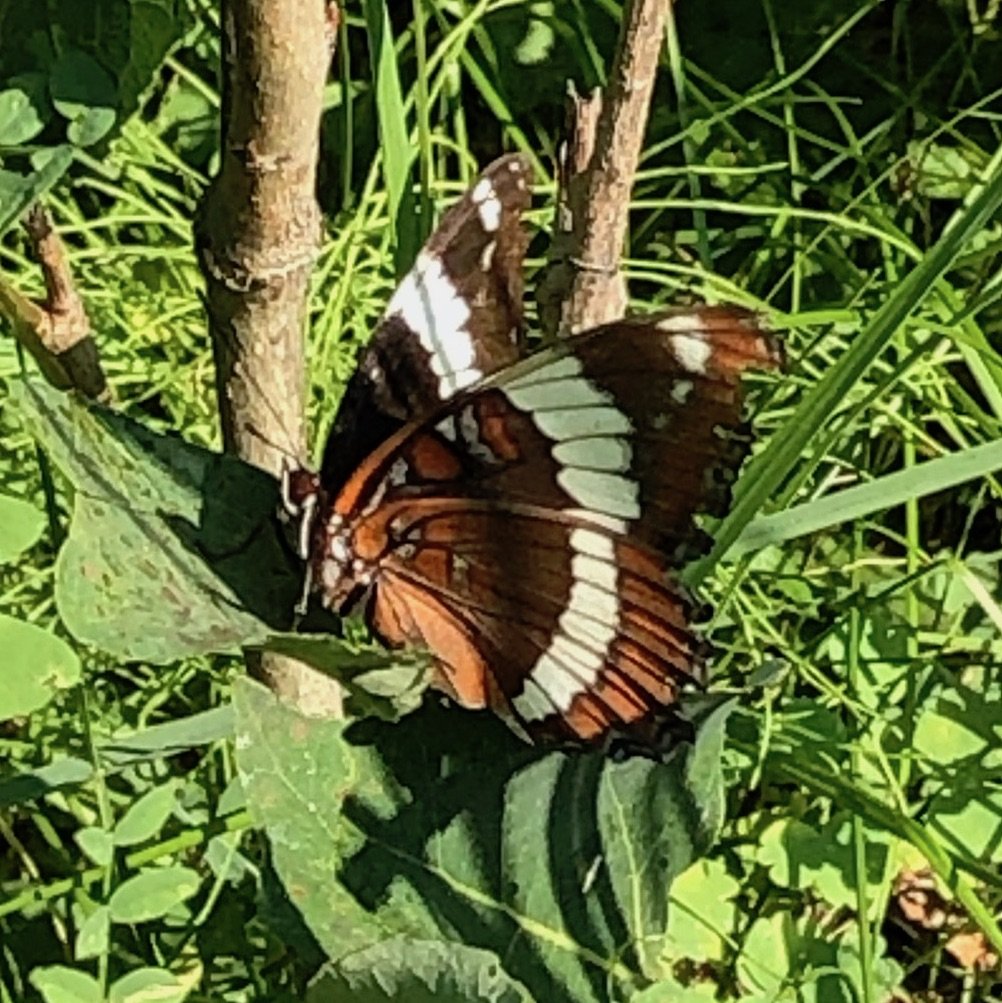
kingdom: Animalia
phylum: Arthropoda
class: Insecta
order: Lepidoptera
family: Nymphalidae
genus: Limenitis
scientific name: Limenitis arthemis
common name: Red-spotted Admiral
